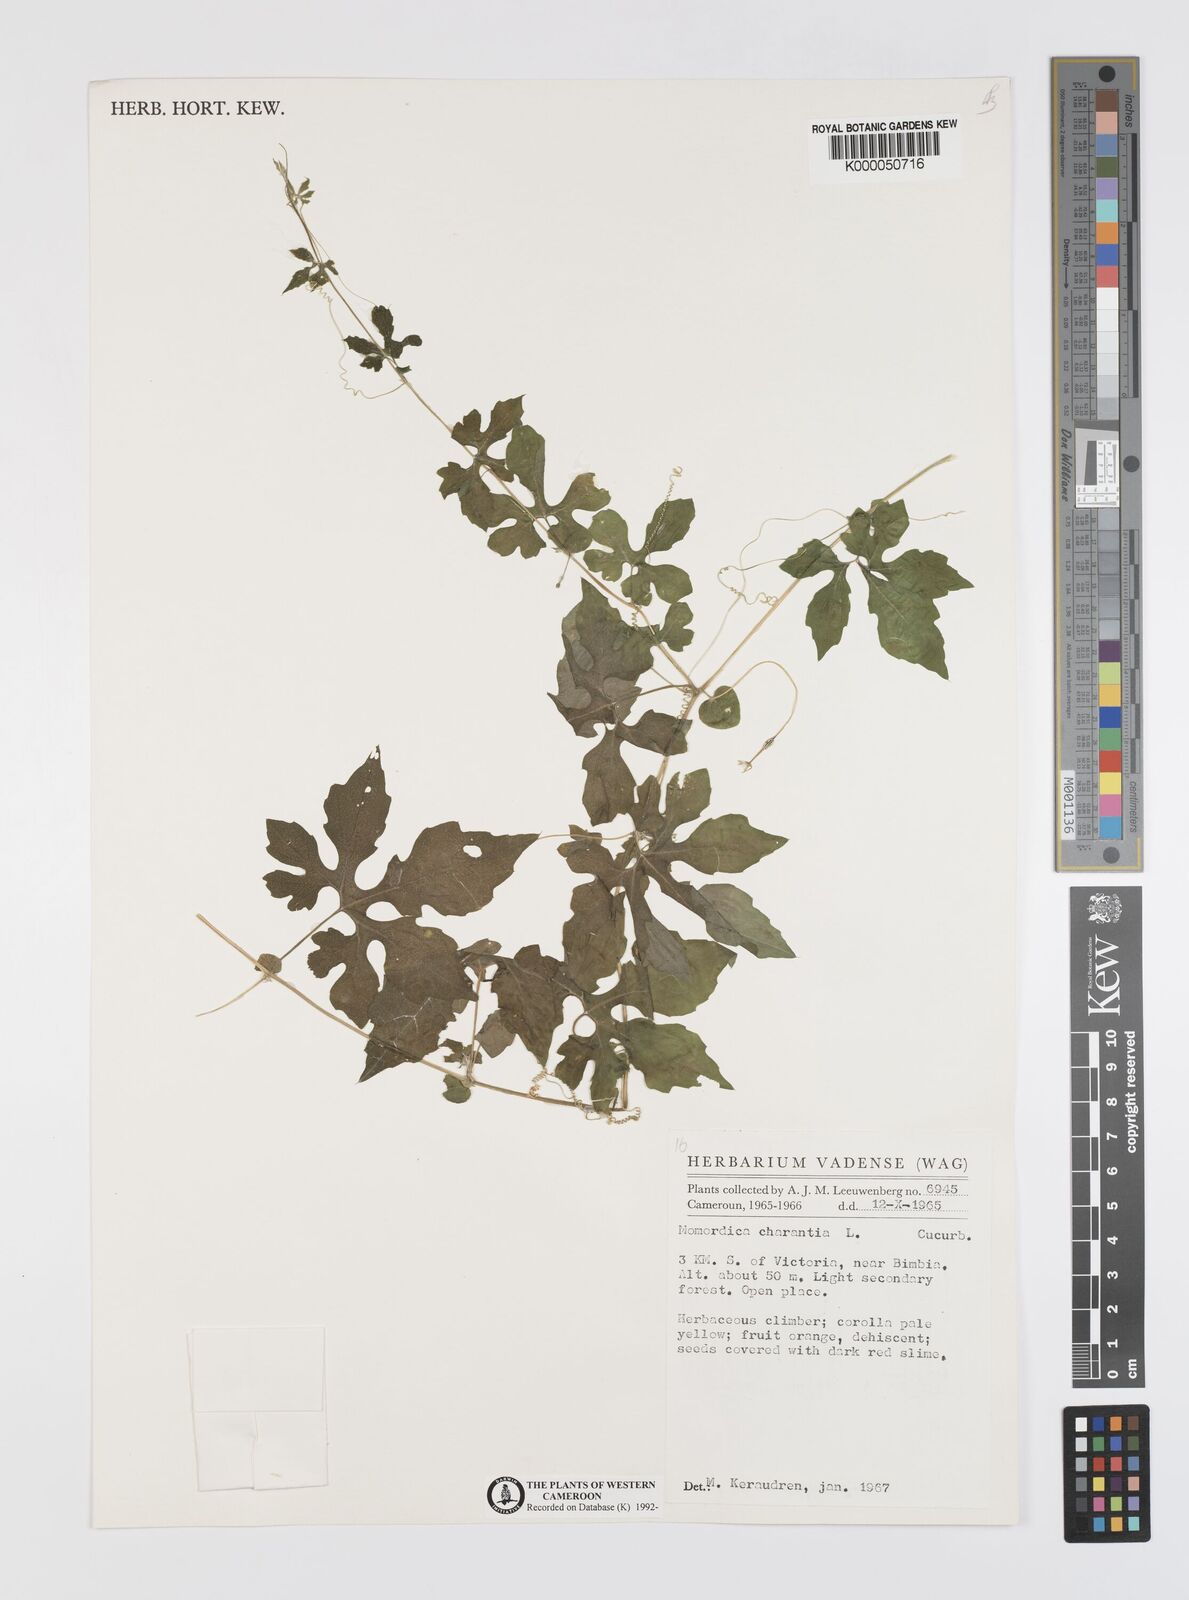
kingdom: Plantae
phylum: Tracheophyta
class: Magnoliopsida
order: Cucurbitales
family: Cucurbitaceae
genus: Momordica
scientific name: Momordica charantia
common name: Balsampear
